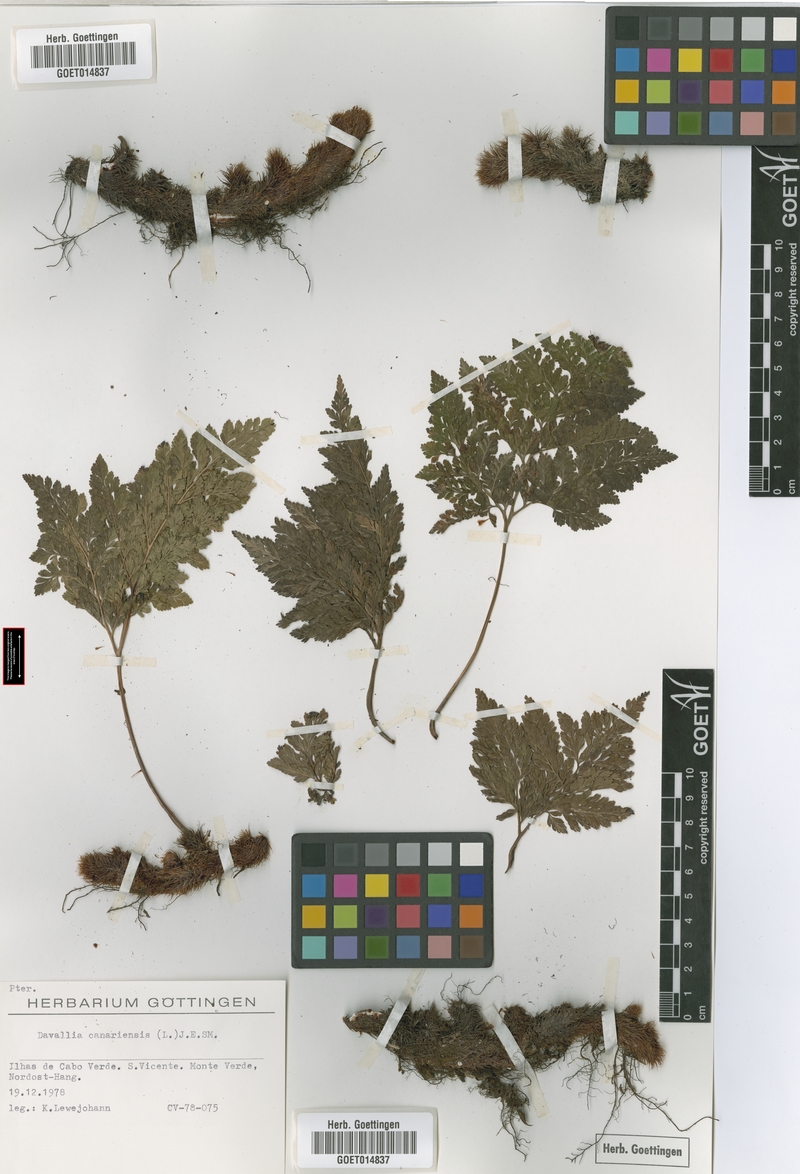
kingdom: Plantae
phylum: Tracheophyta
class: Polypodiopsida
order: Polypodiales
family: Davalliaceae
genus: Davallia
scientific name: Davallia canariensis
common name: Hare's-foot fern
